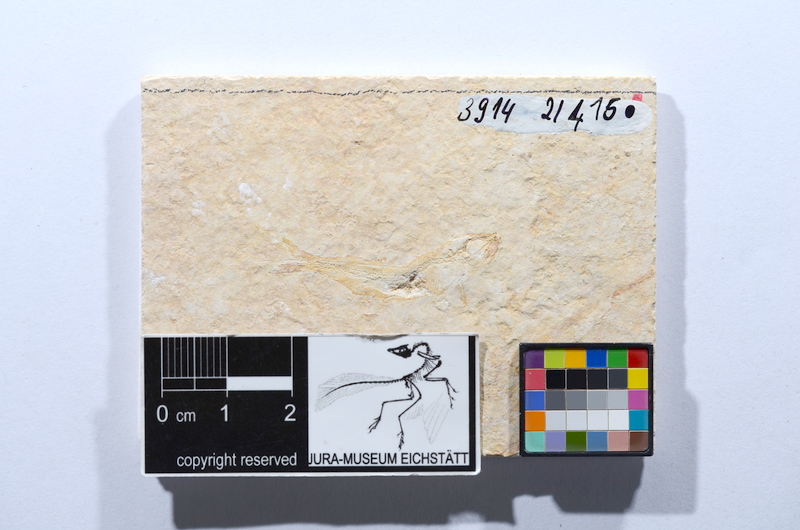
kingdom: Animalia
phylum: Chordata
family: Allothrissopidae
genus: Allothrissops
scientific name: Allothrissops mesogaster
